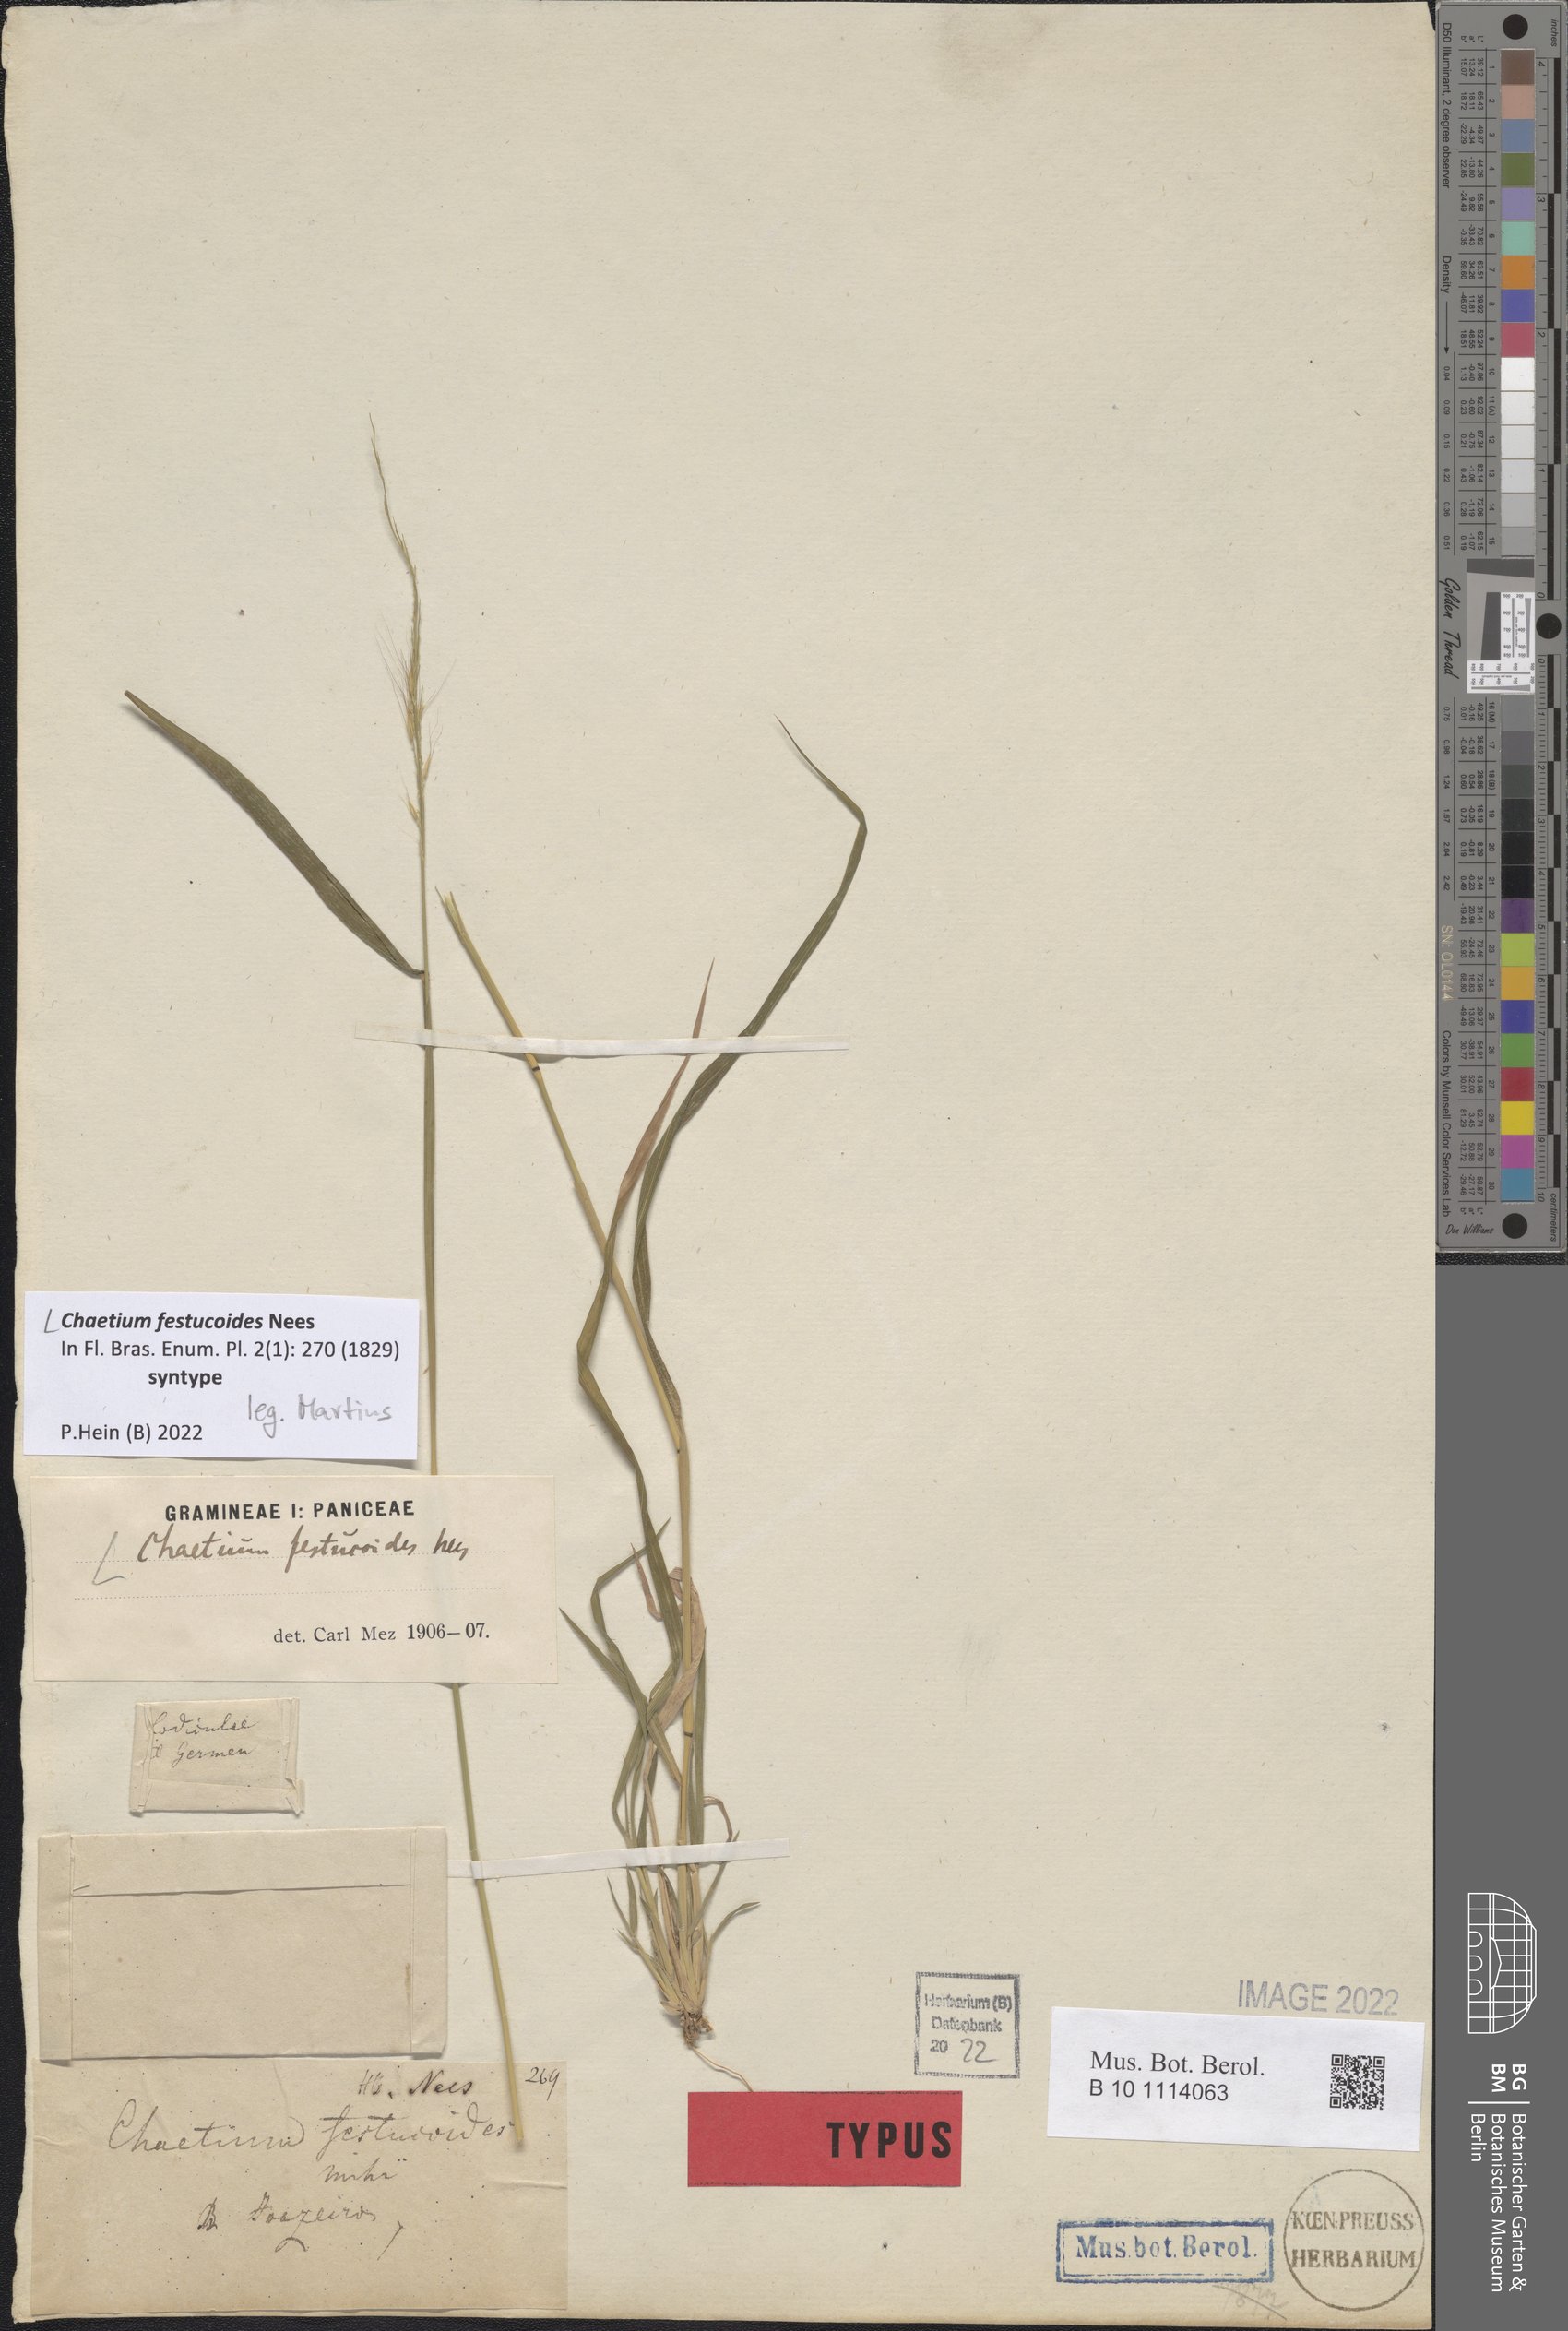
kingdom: Plantae
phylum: Tracheophyta
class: Liliopsida
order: Poales
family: Poaceae
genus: Chaetium
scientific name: Chaetium festucoides
